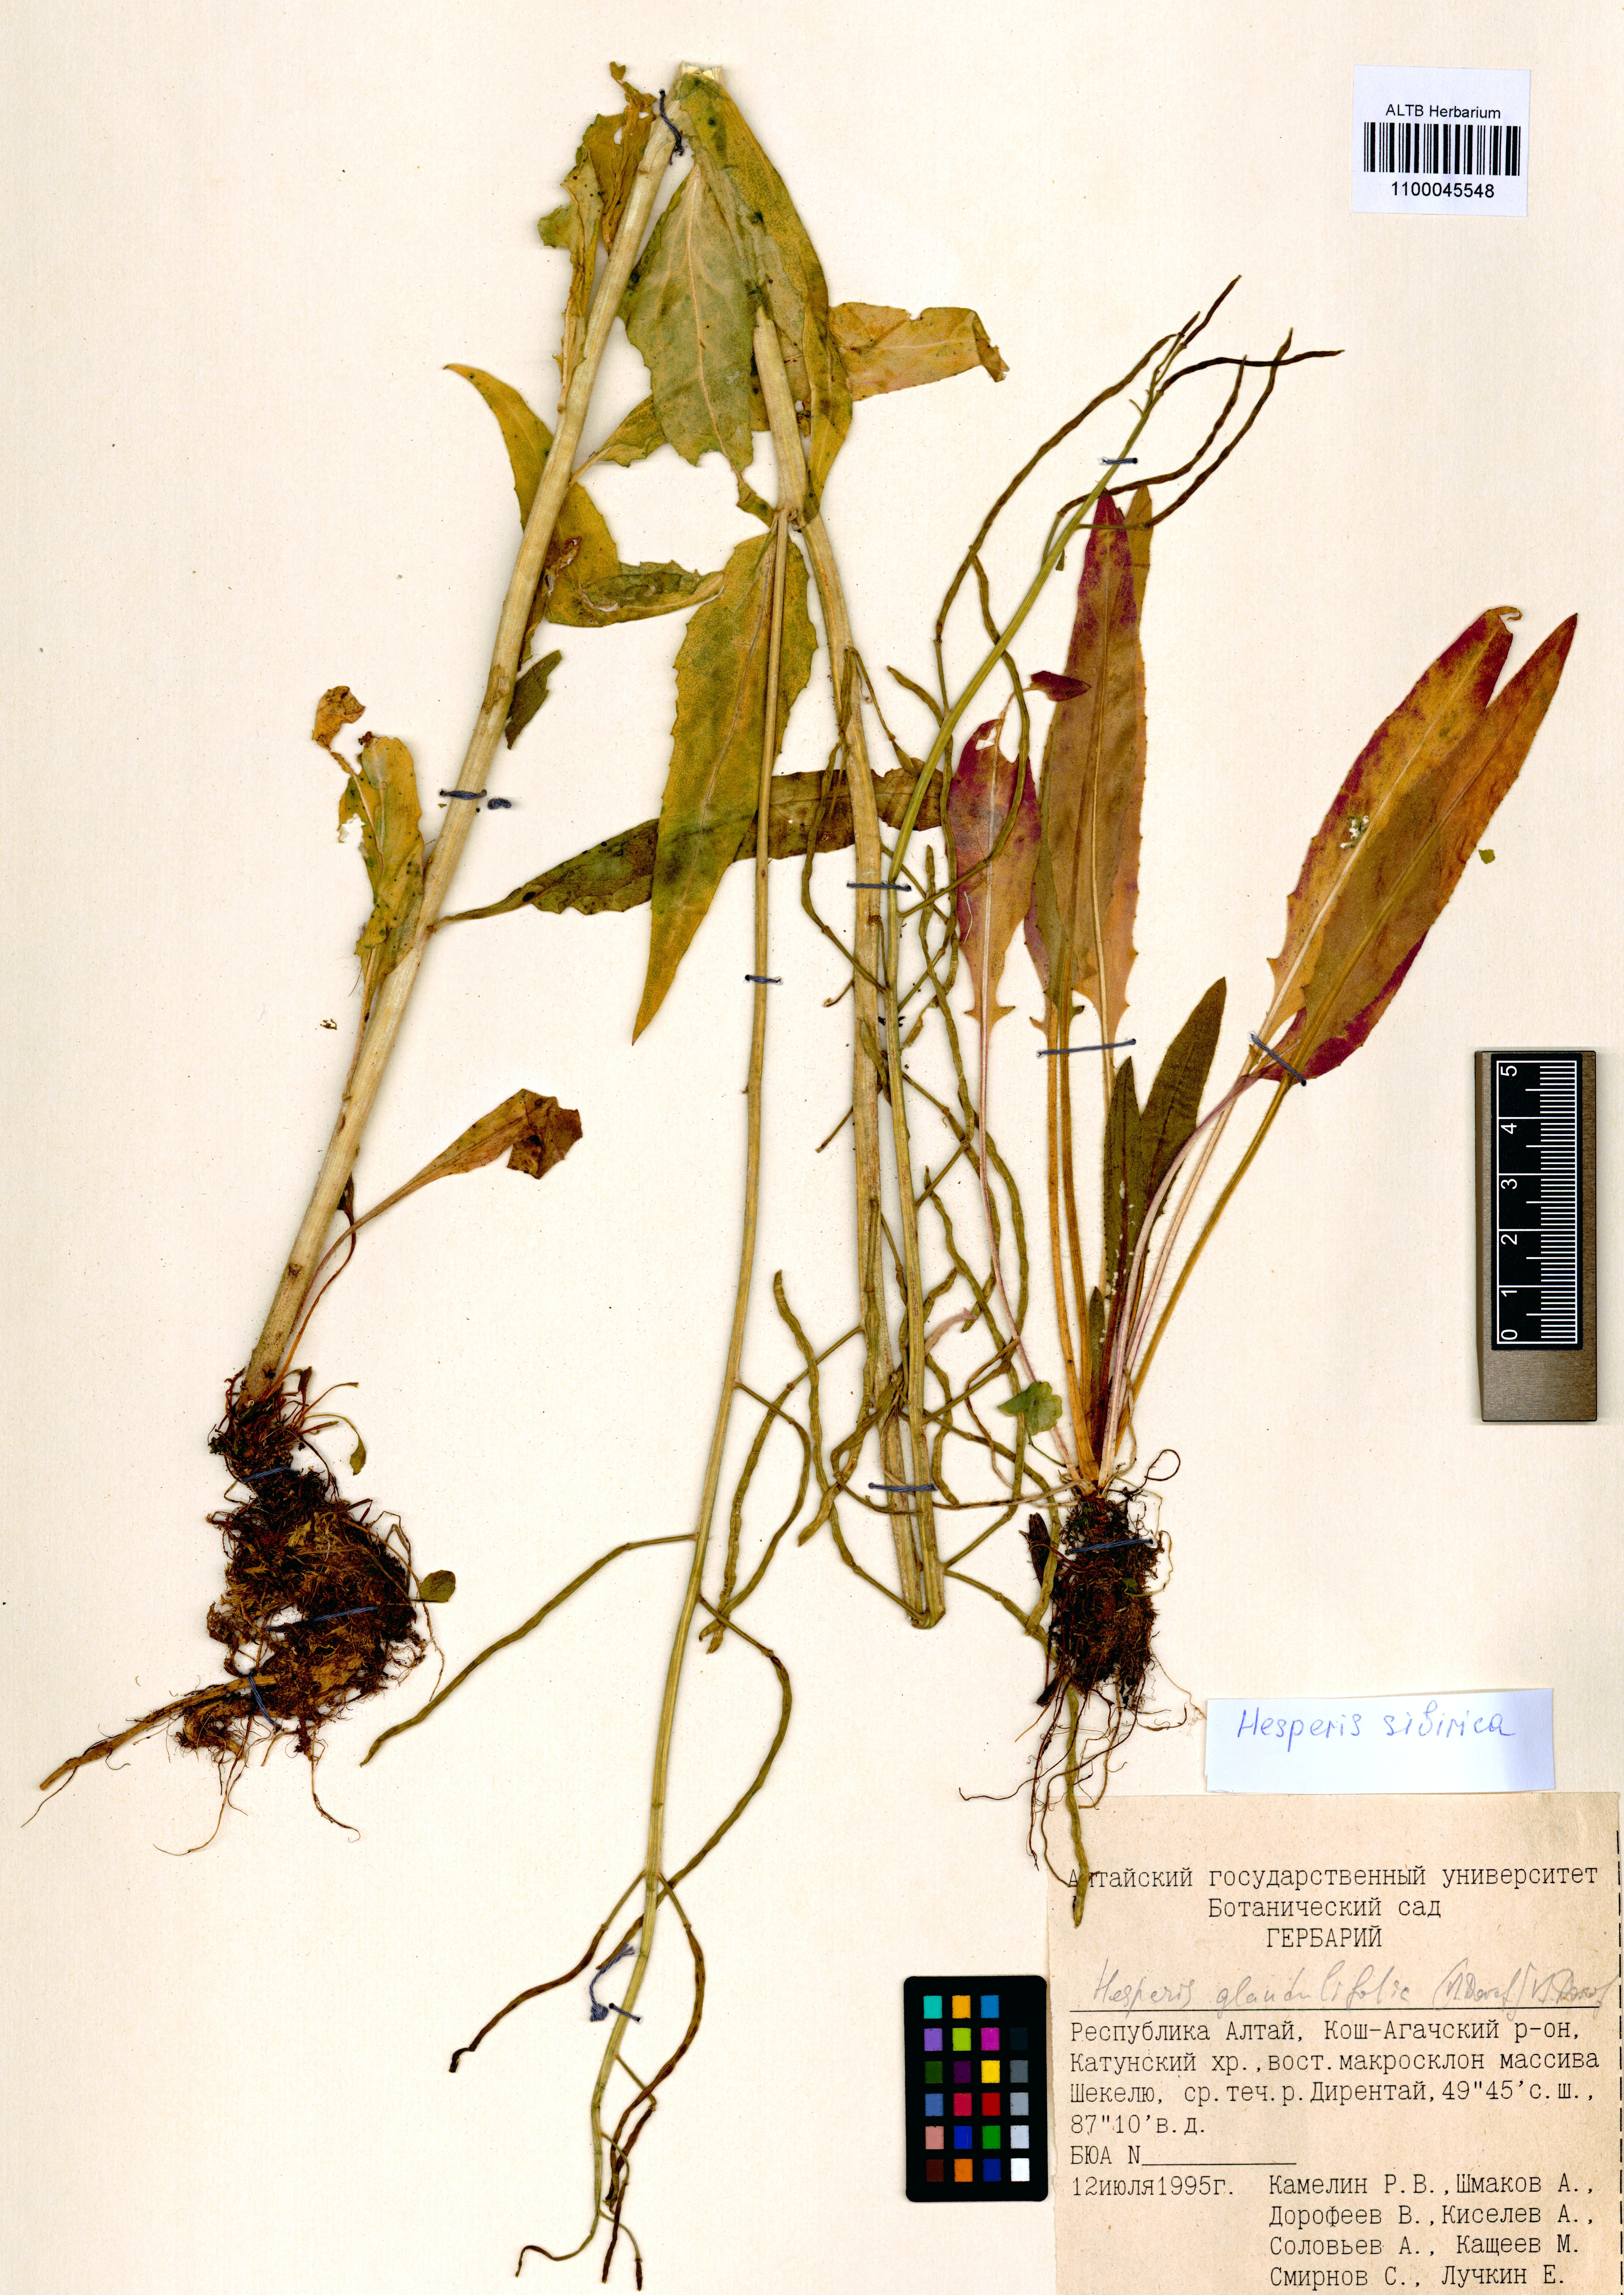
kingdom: Plantae
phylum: Tracheophyta
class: Magnoliopsida
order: Brassicales
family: Brassicaceae
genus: Hesperis
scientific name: Hesperis sibirica
